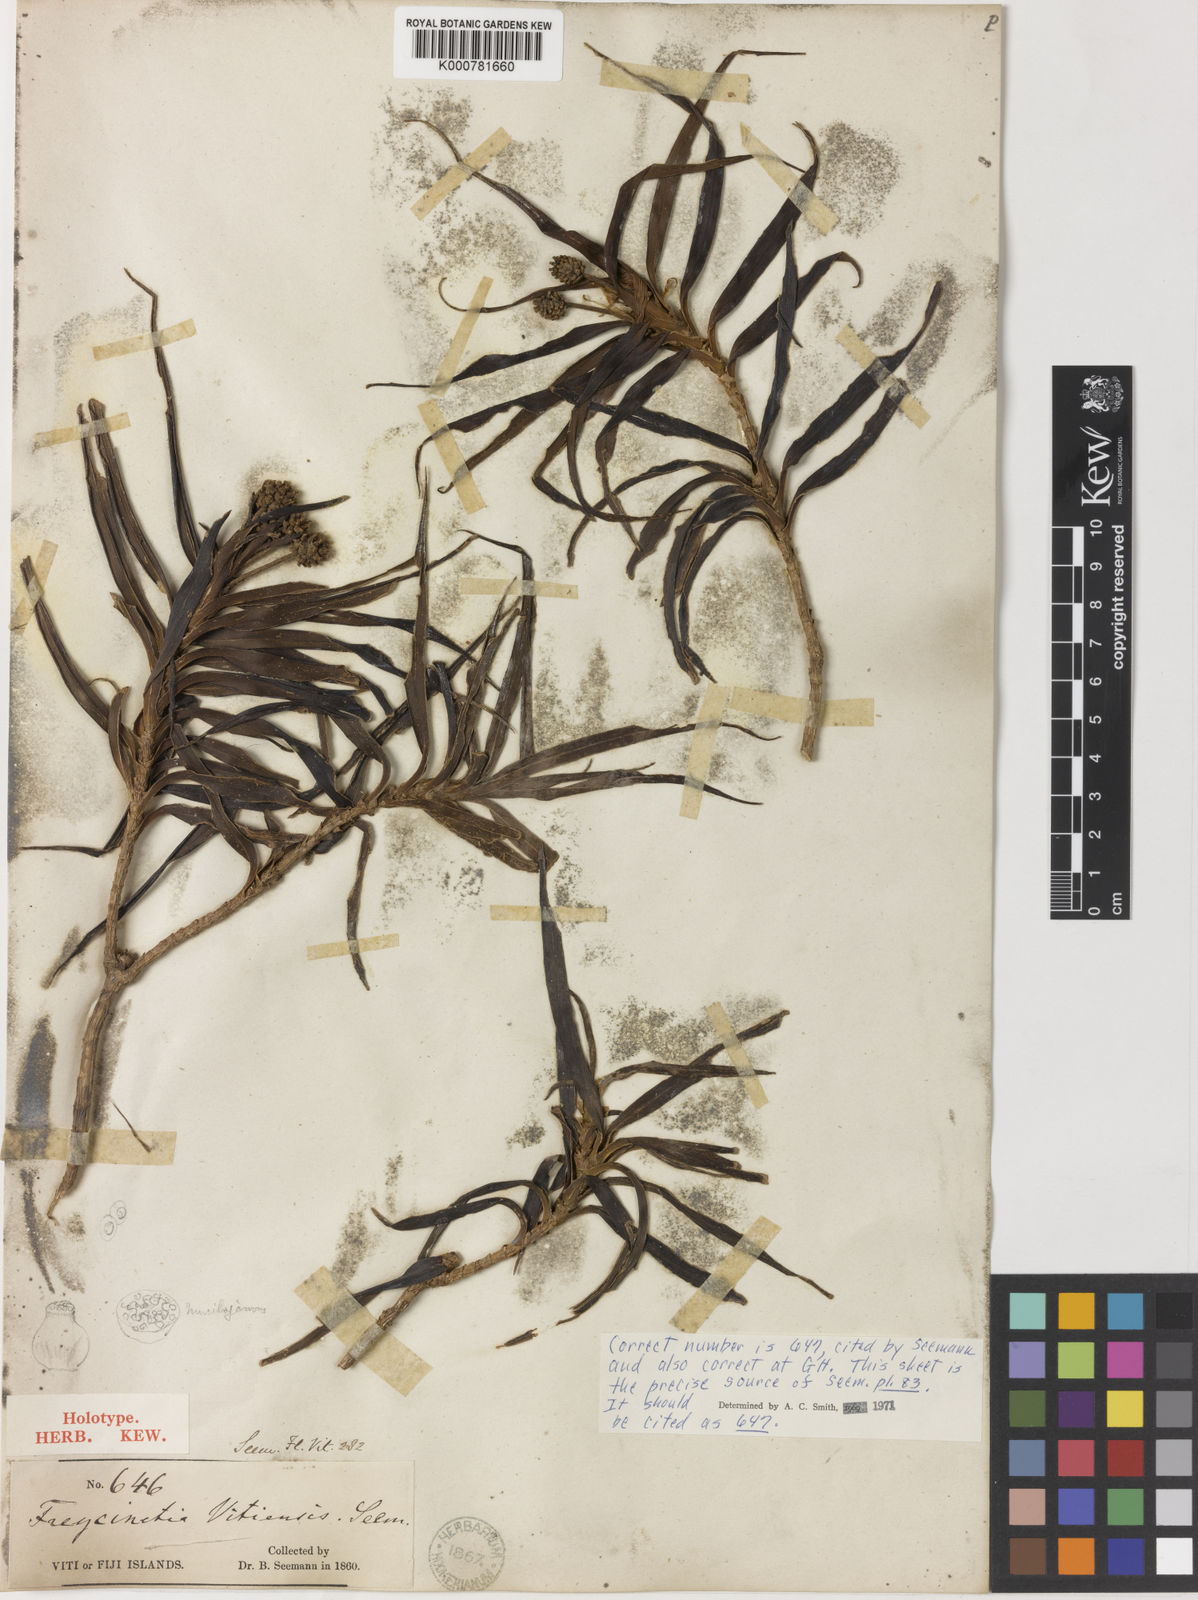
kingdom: Plantae
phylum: Tracheophyta
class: Liliopsida
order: Pandanales
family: Pandanaceae
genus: Freycinetia
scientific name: Freycinetia vitiensis
